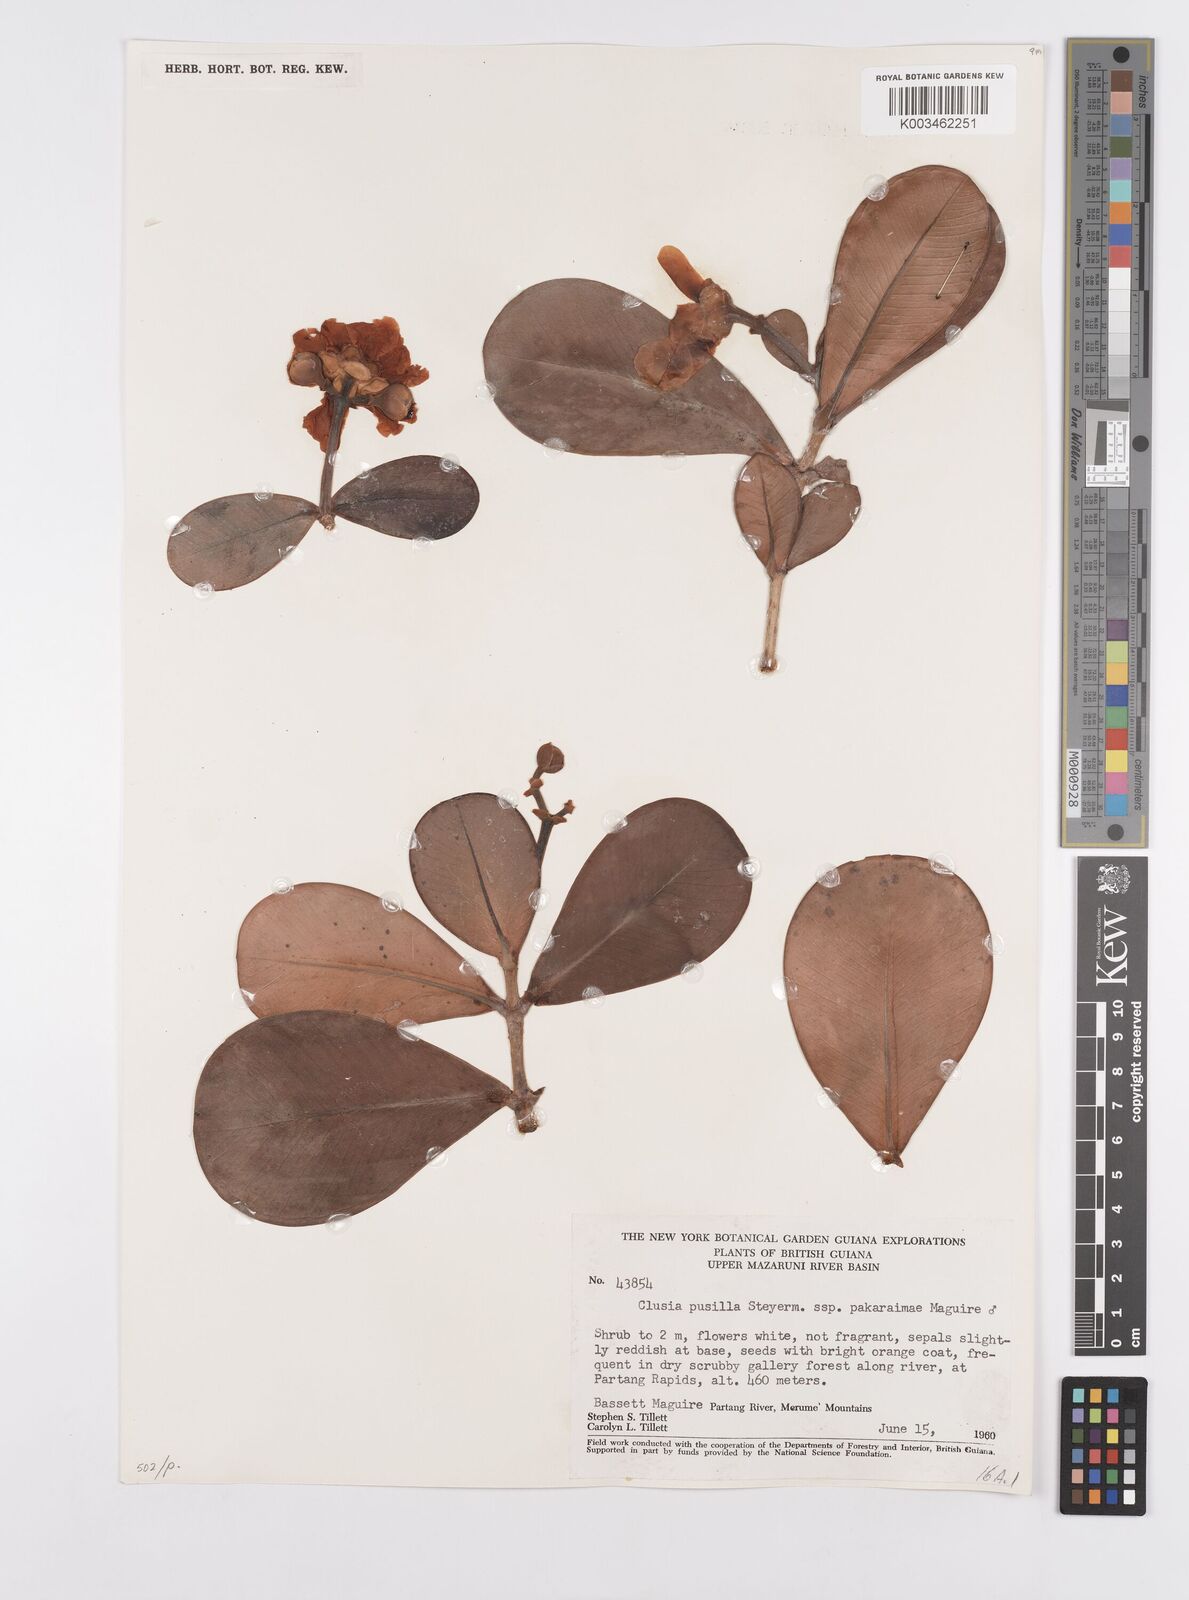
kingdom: Plantae
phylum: Tracheophyta
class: Magnoliopsida
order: Malpighiales
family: Clusiaceae
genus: Clusia
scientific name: Clusia pusilla
